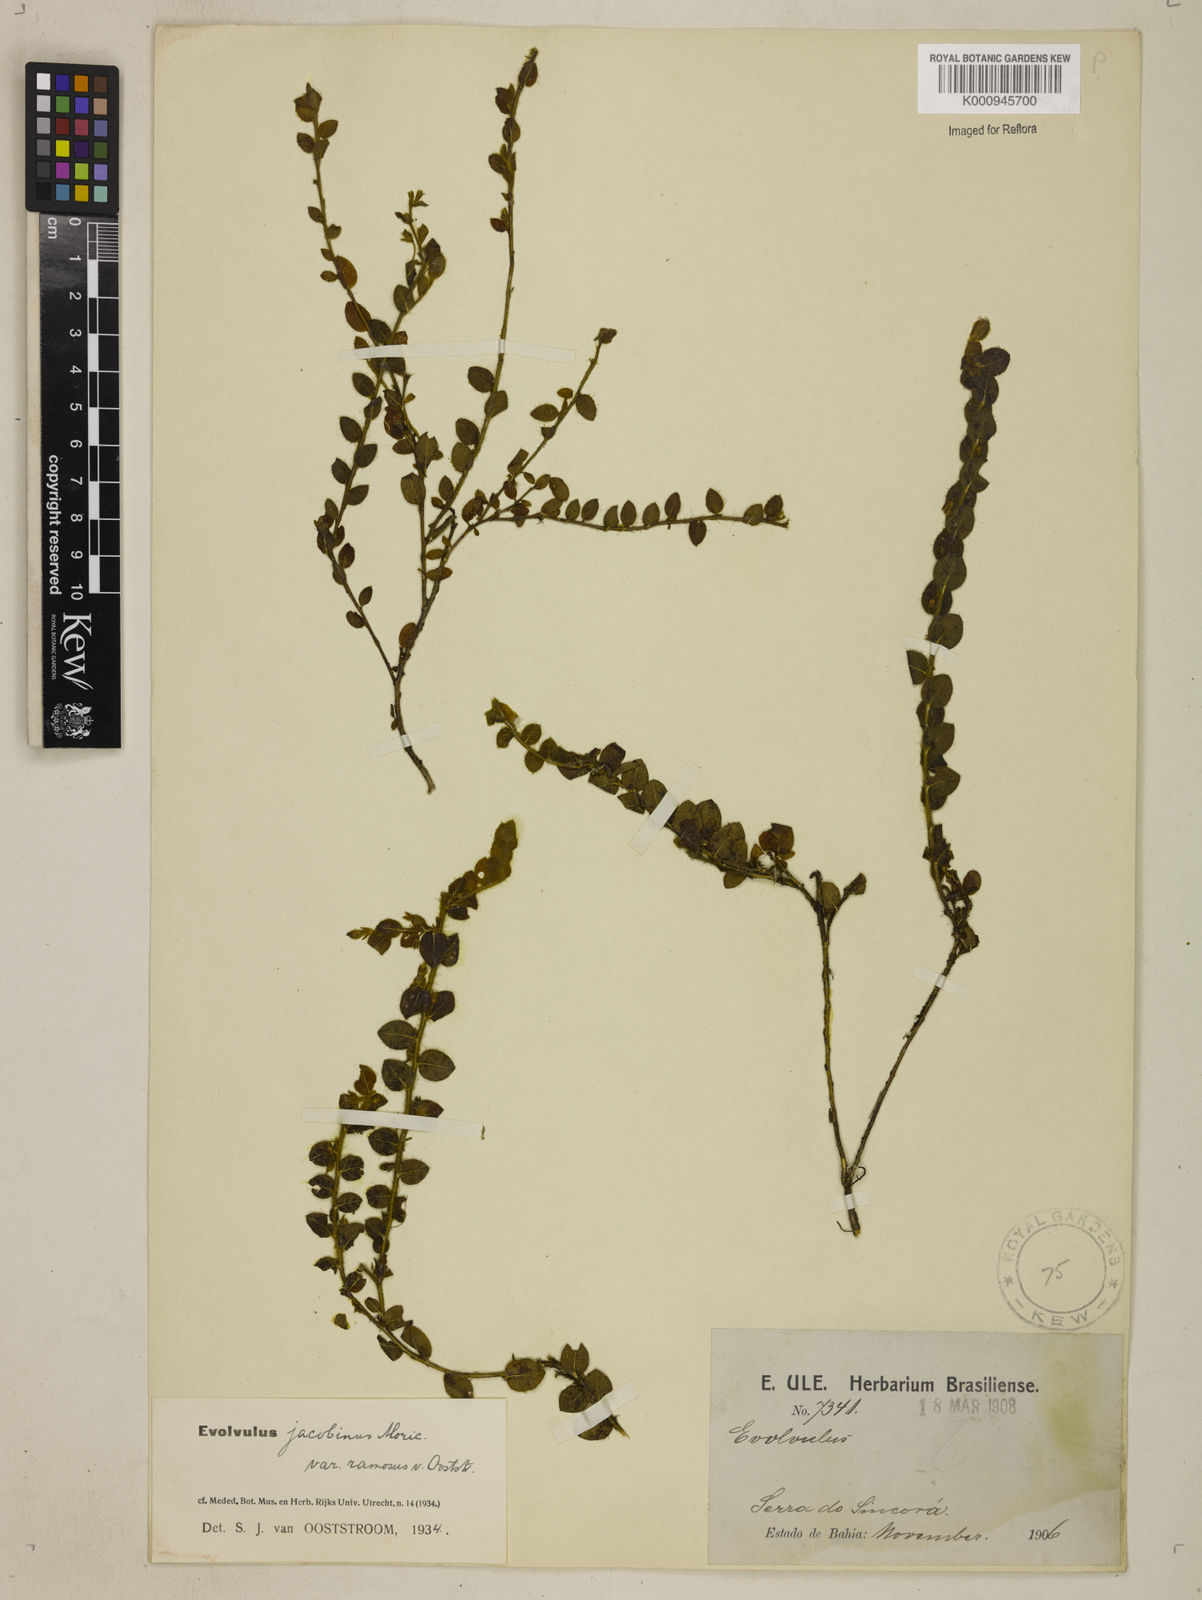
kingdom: Plantae
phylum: Tracheophyta
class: Magnoliopsida
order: Solanales
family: Convolvulaceae
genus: Evolvulus
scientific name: Evolvulus jacobinus
